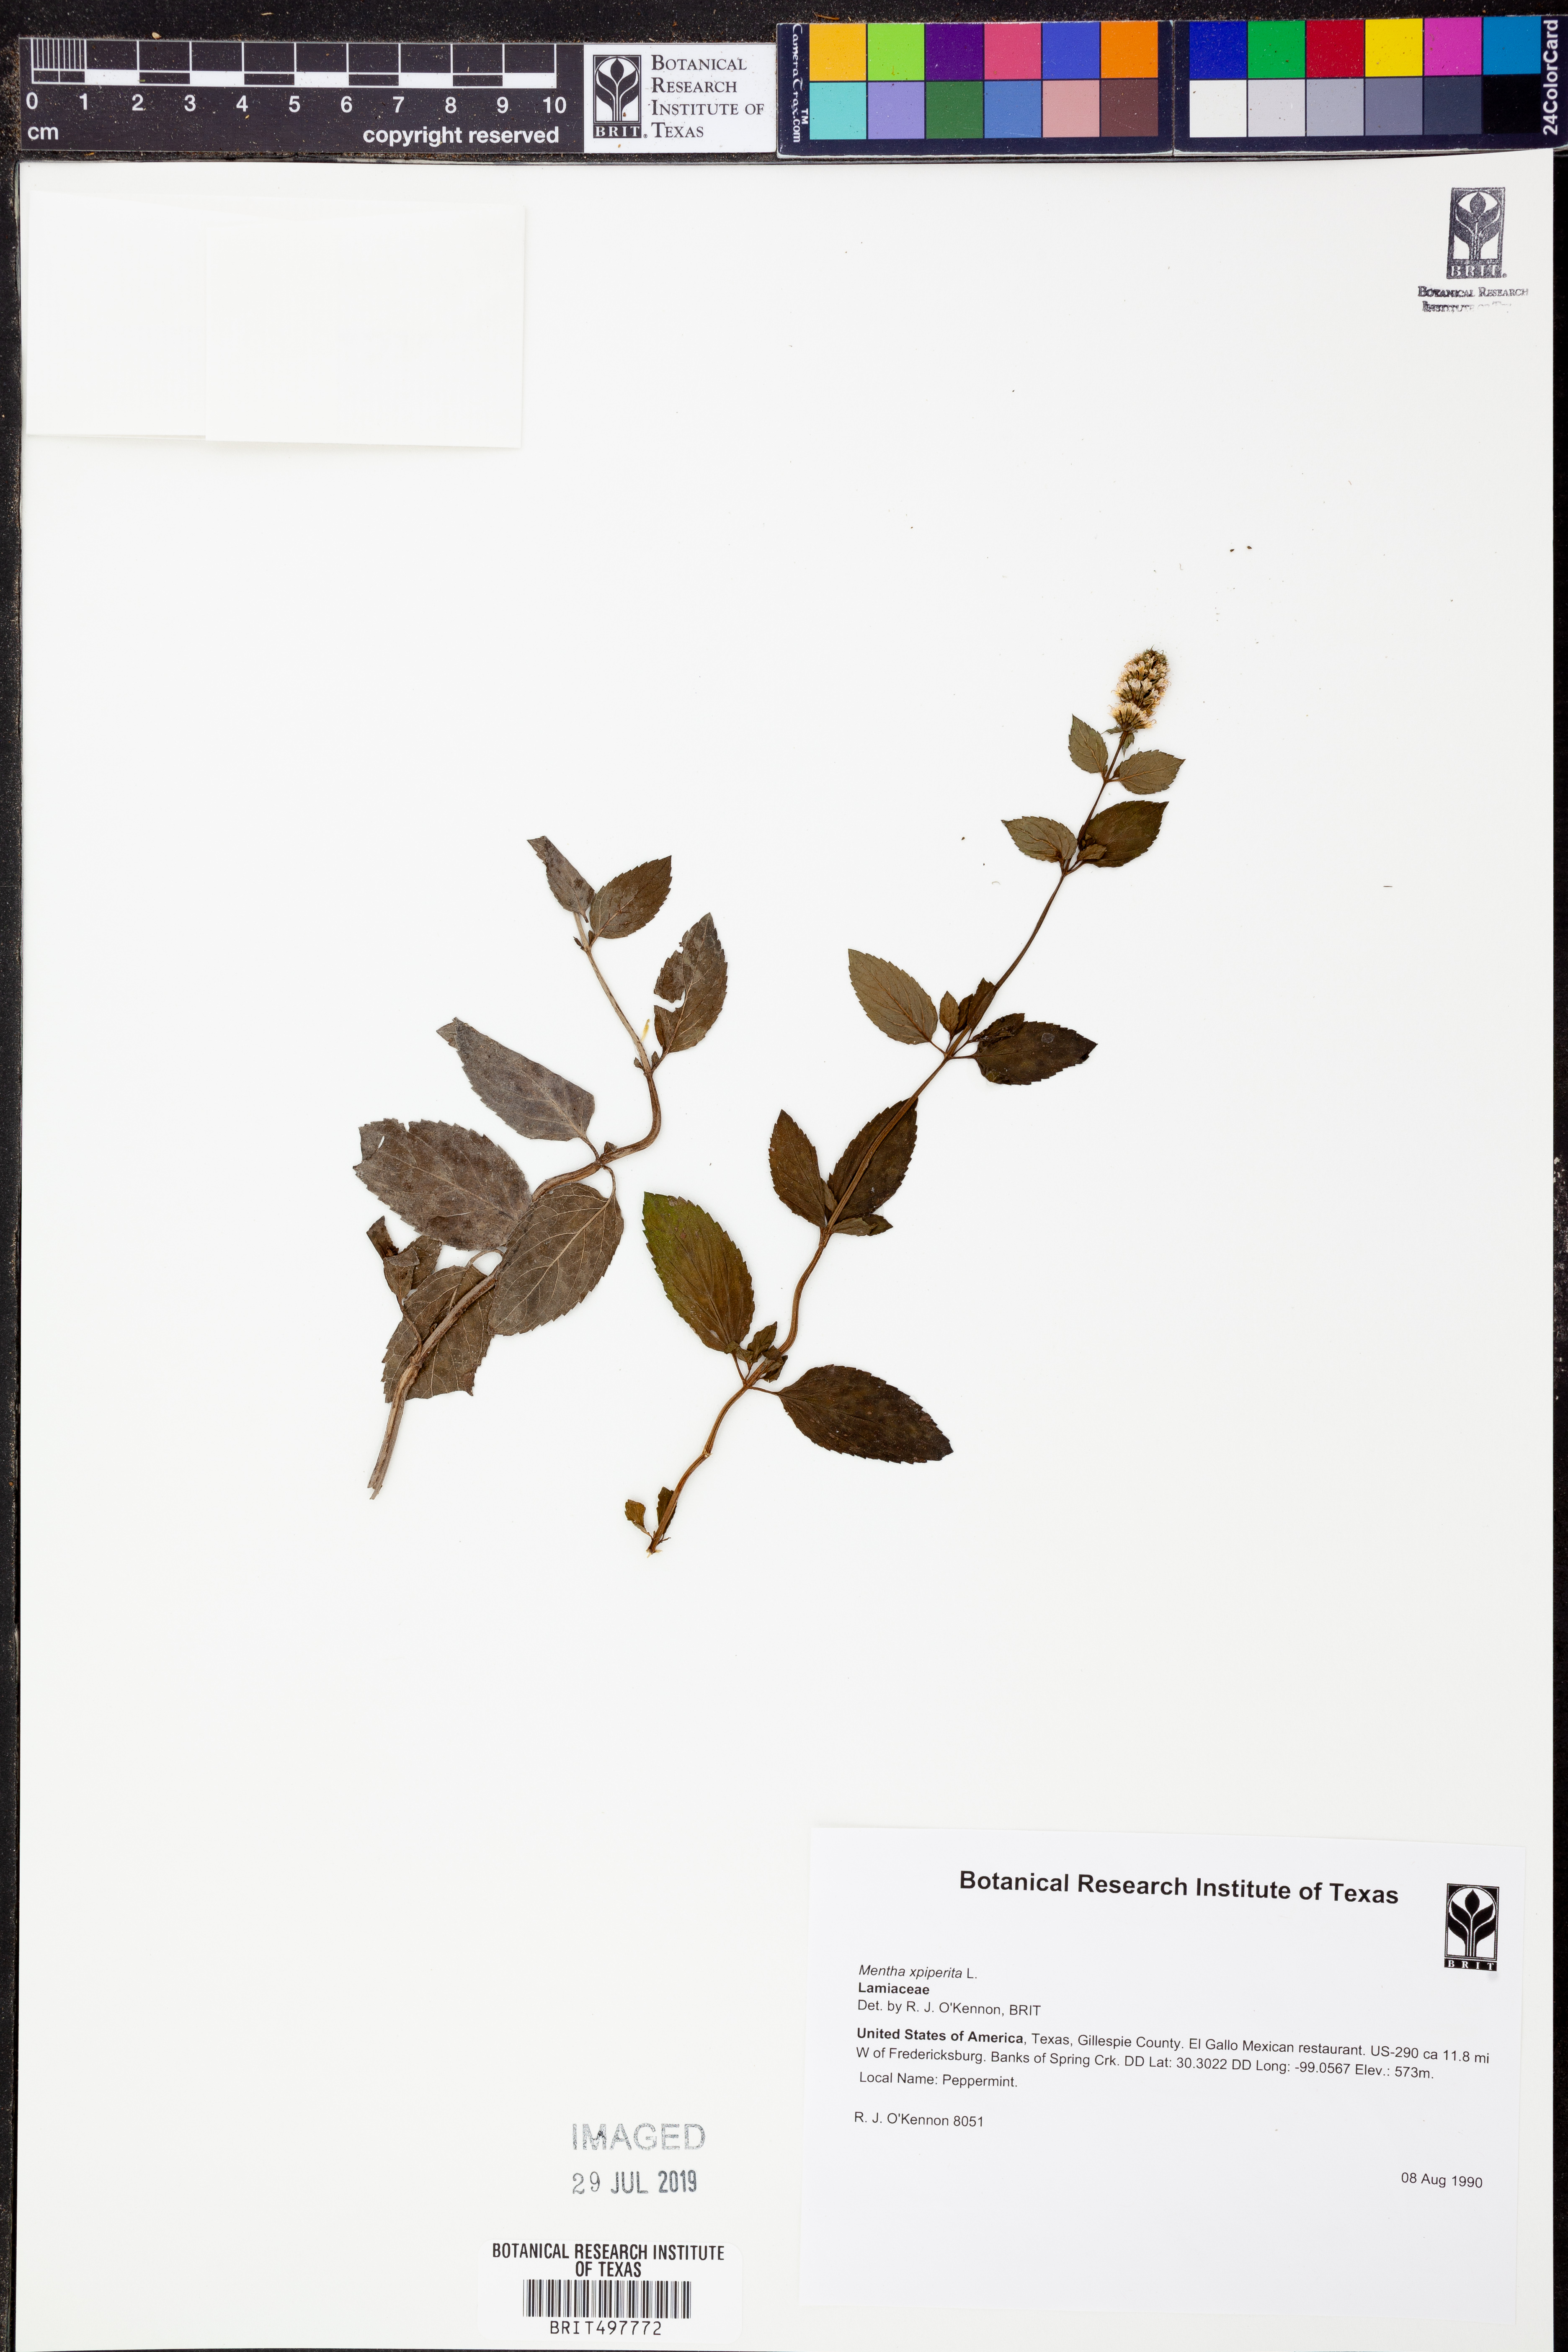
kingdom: Plantae
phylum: Tracheophyta
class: Magnoliopsida
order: Lamiales
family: Lamiaceae
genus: Mentha
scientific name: Mentha
